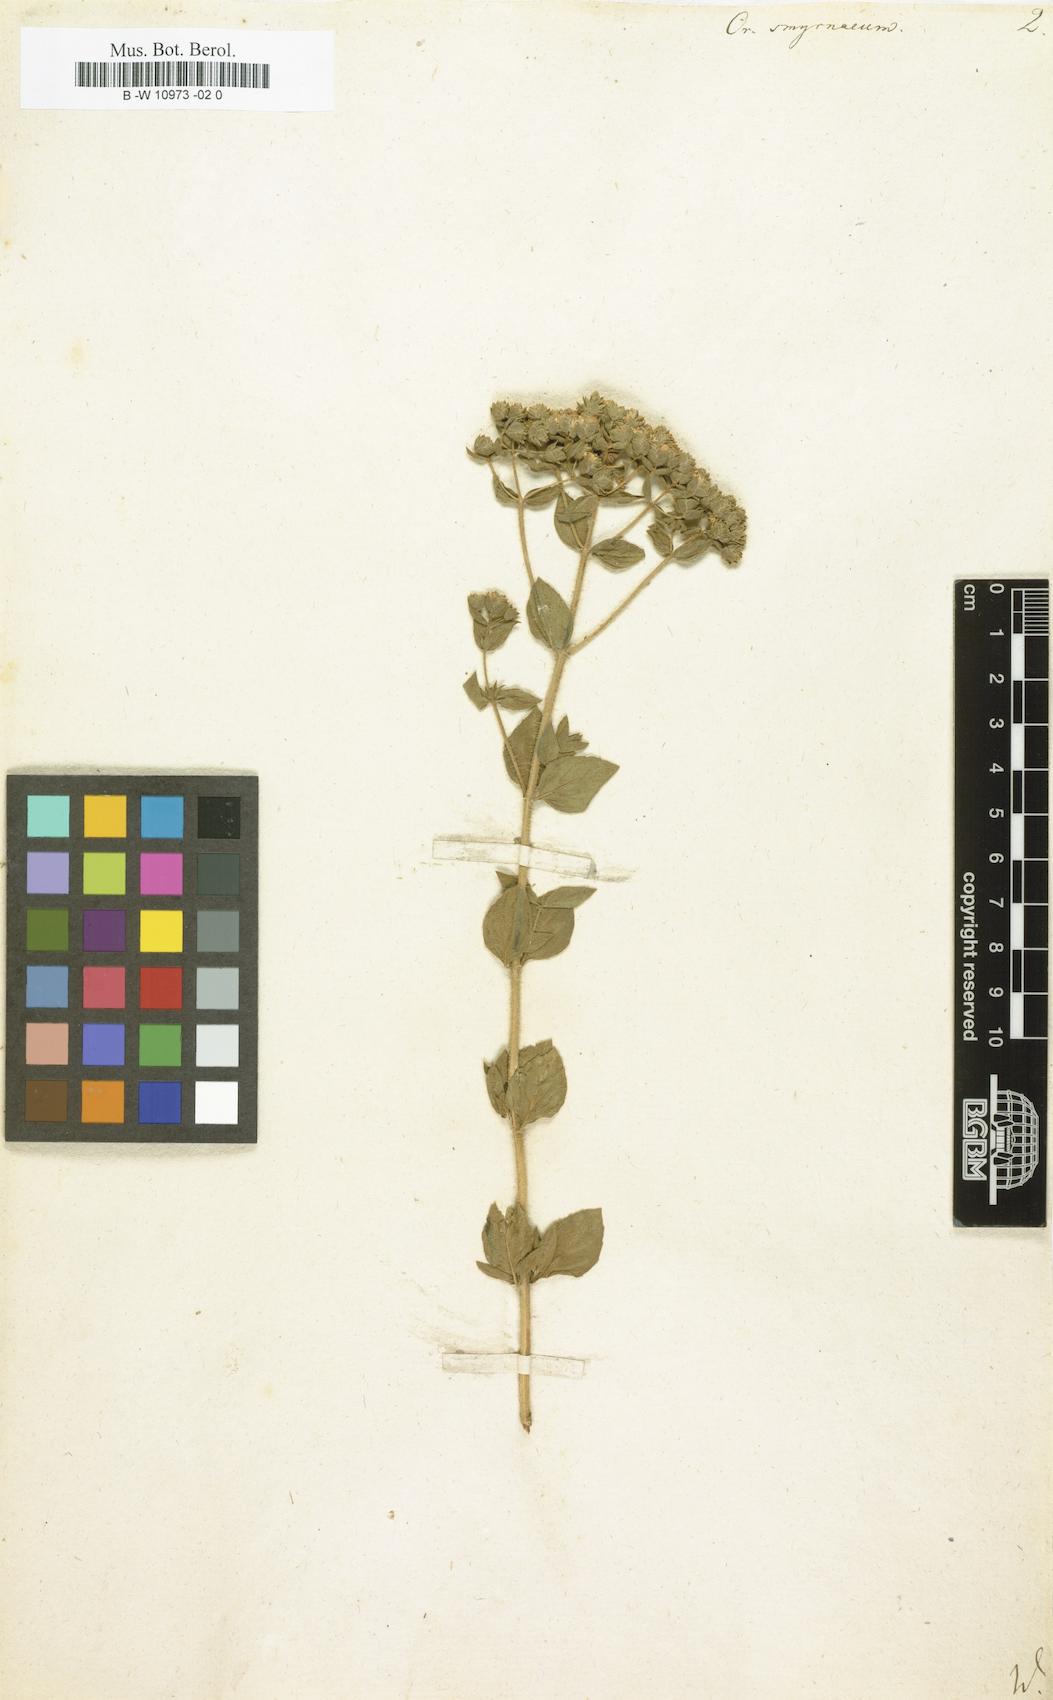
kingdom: Plantae
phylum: Tracheophyta
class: Magnoliopsida
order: Lamiales
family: Lamiaceae
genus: Origanum
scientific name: Origanum
